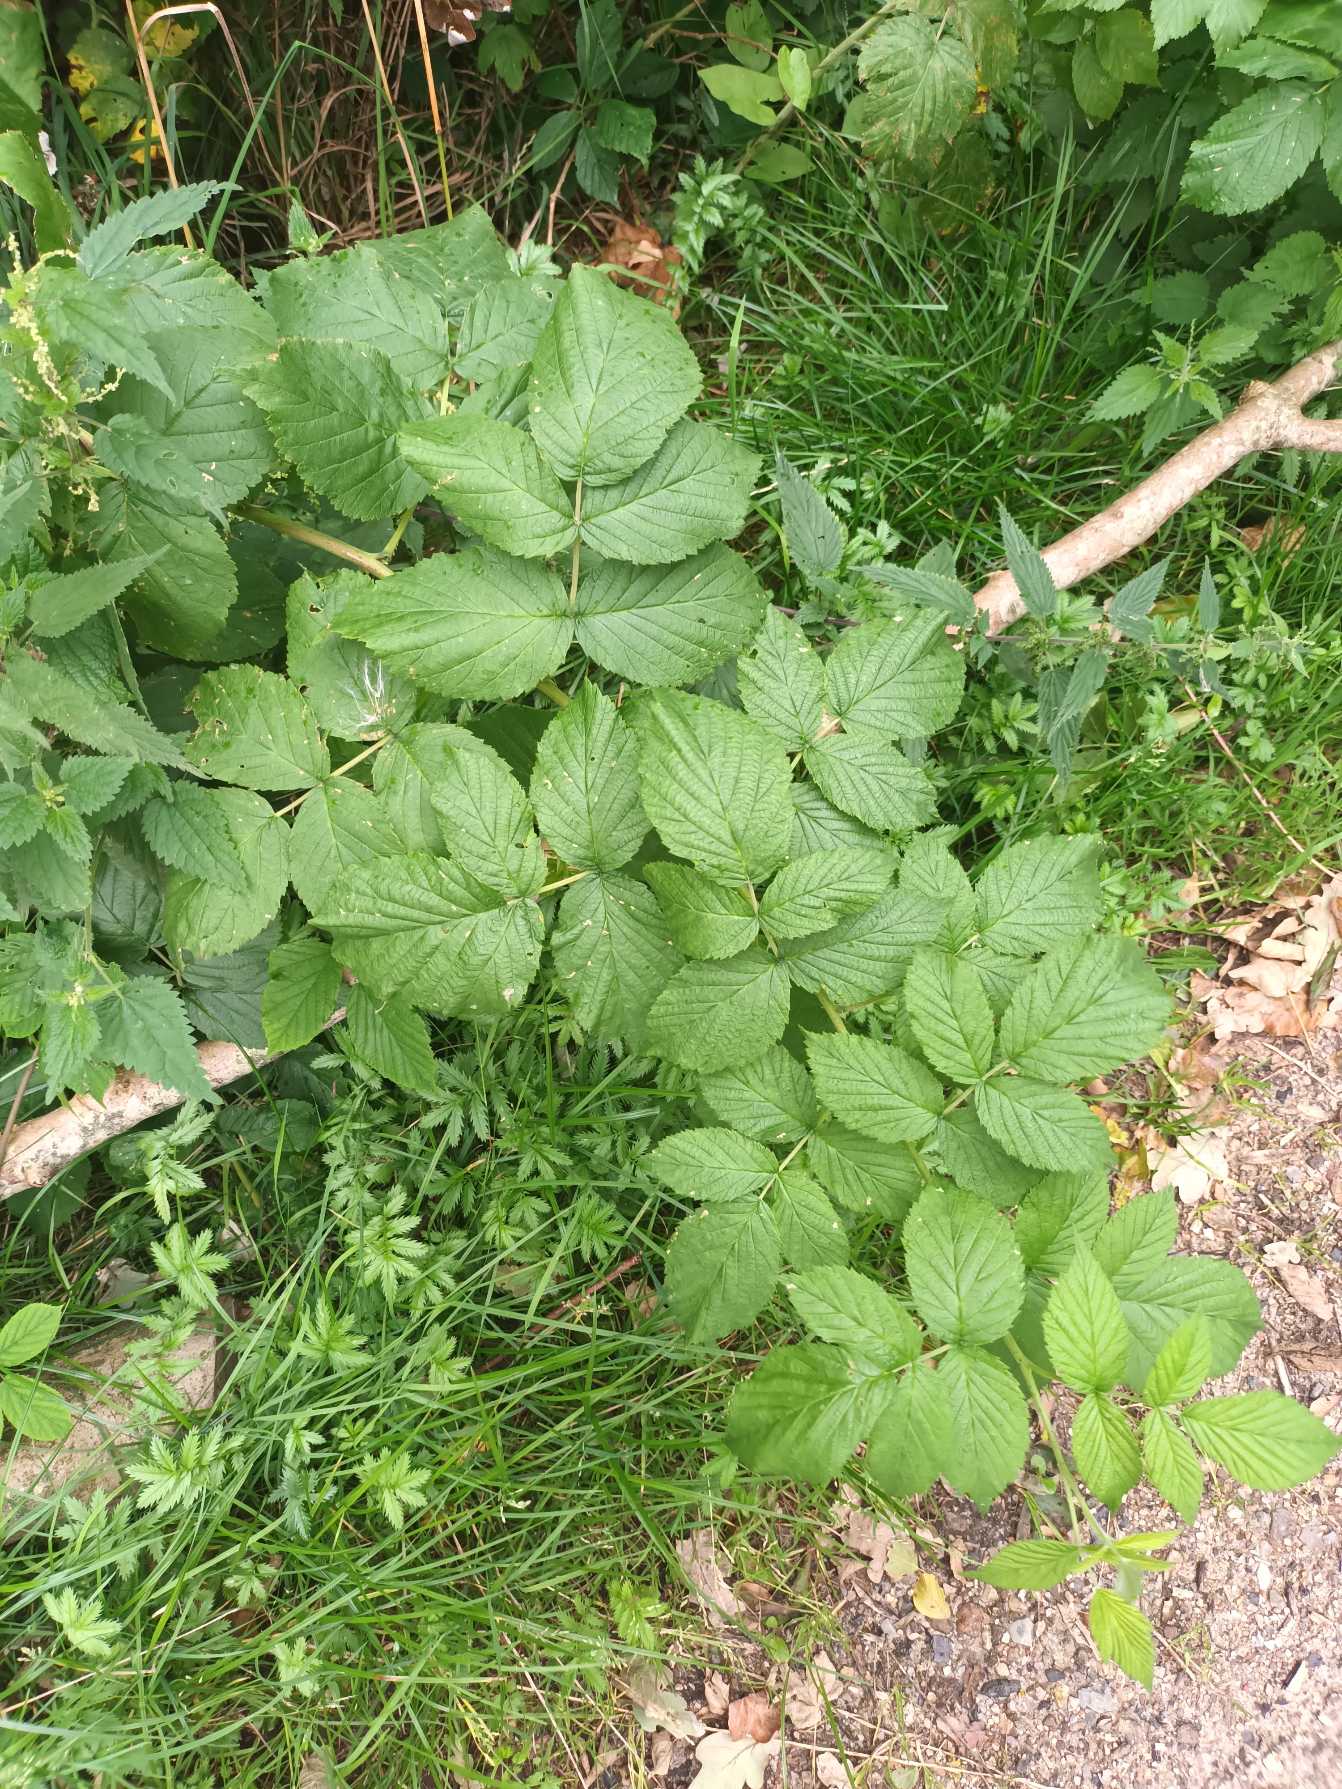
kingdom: Plantae
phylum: Tracheophyta
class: Magnoliopsida
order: Rosales
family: Rosaceae
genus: Rubus
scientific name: Rubus idaeus
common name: Hindbær
